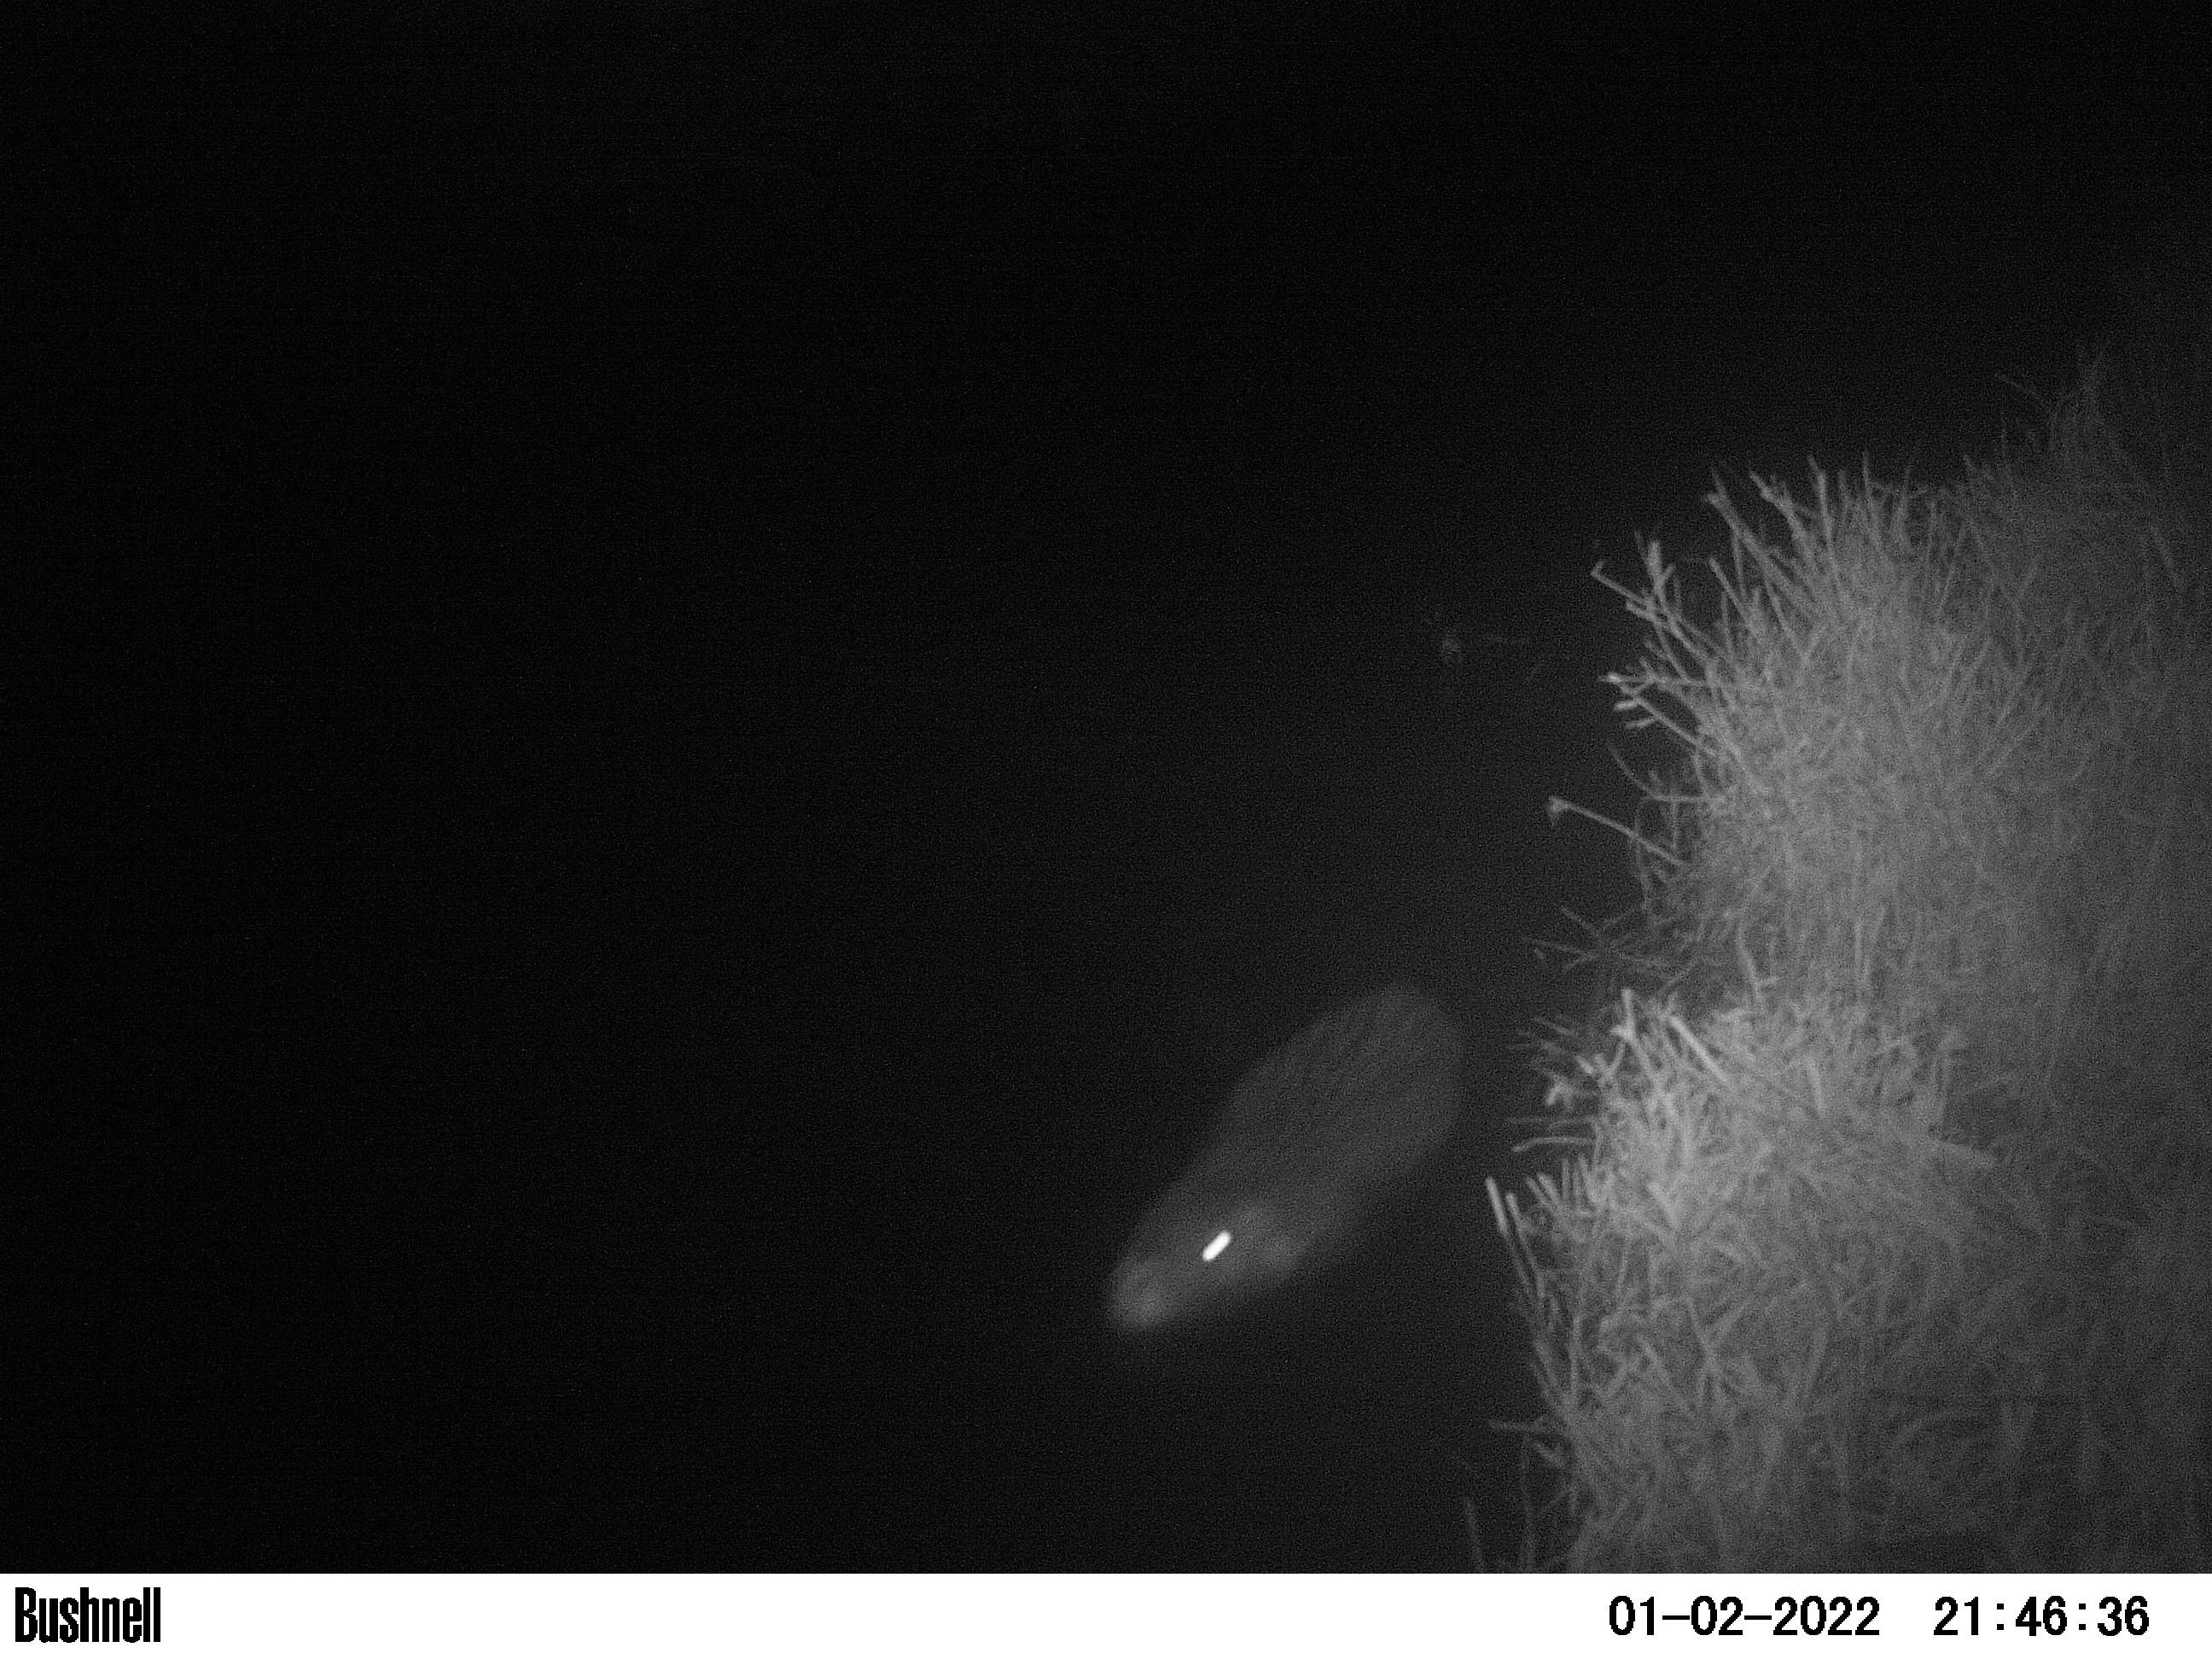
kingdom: Animalia
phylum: Chordata
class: Mammalia
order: Rodentia
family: Myocastoridae
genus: Myocastor
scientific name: Myocastor coypus
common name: Coypu
